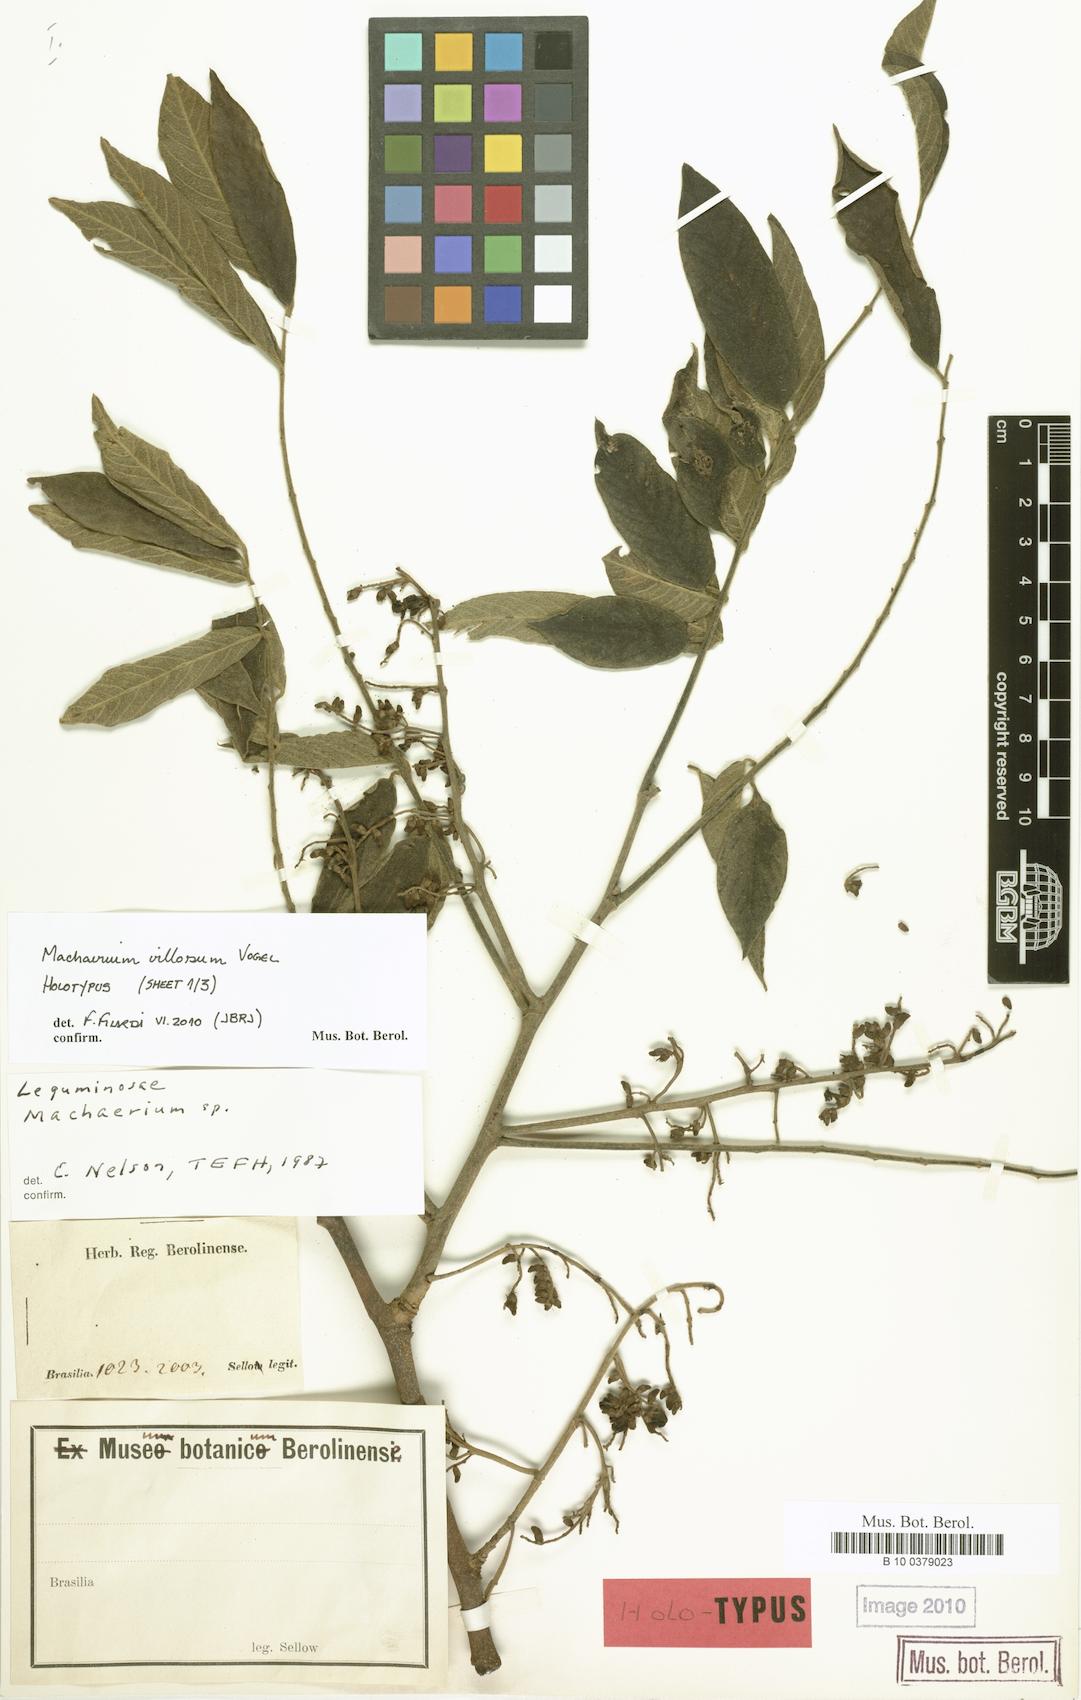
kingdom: Plantae
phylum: Tracheophyta
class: Magnoliopsida
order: Fabales
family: Fabaceae
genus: Machaerium
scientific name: Machaerium villosum
